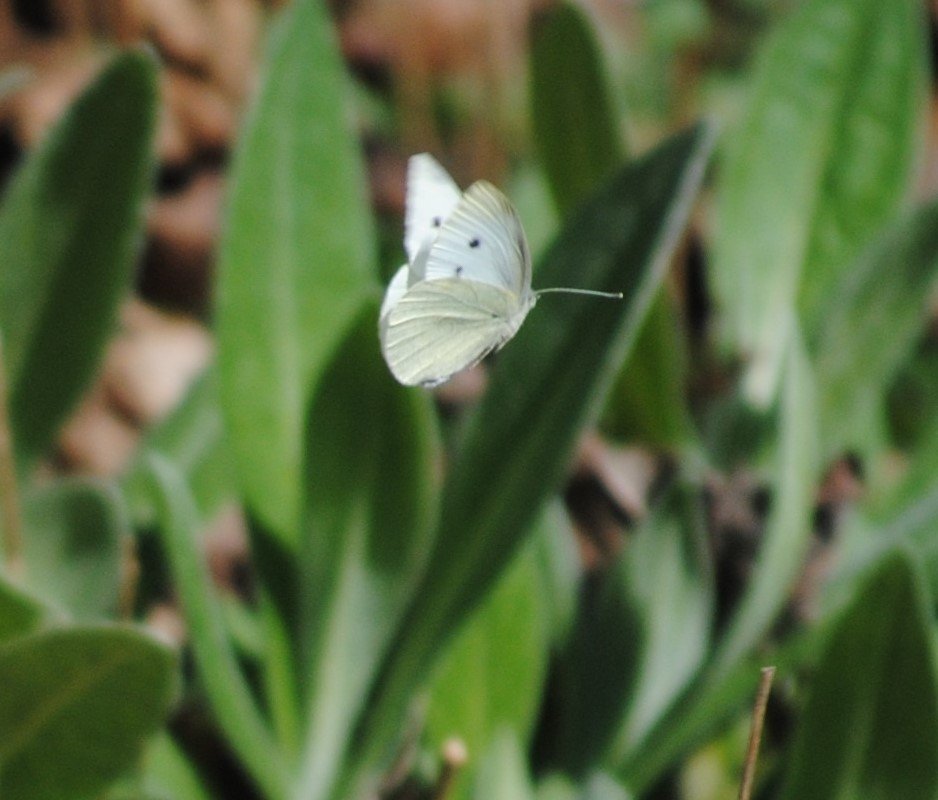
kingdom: Animalia
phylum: Arthropoda
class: Insecta
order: Lepidoptera
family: Pieridae
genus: Pieris
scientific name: Pieris rapae
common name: Cabbage White
